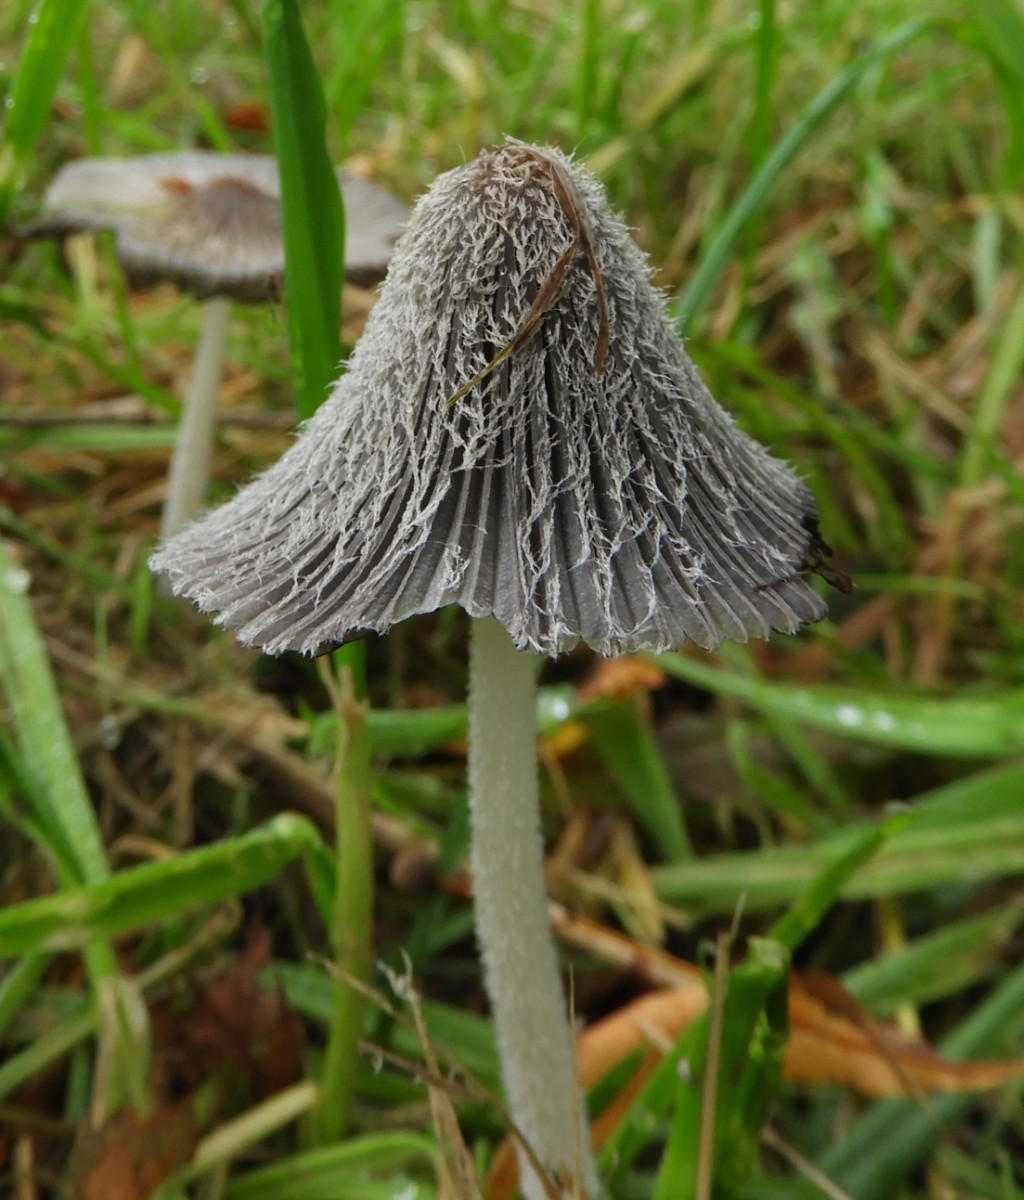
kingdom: Fungi
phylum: Basidiomycota
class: Agaricomycetes
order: Agaricales
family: Psathyrellaceae
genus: Coprinopsis
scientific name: Coprinopsis lagopus
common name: dunstokket blækhat
